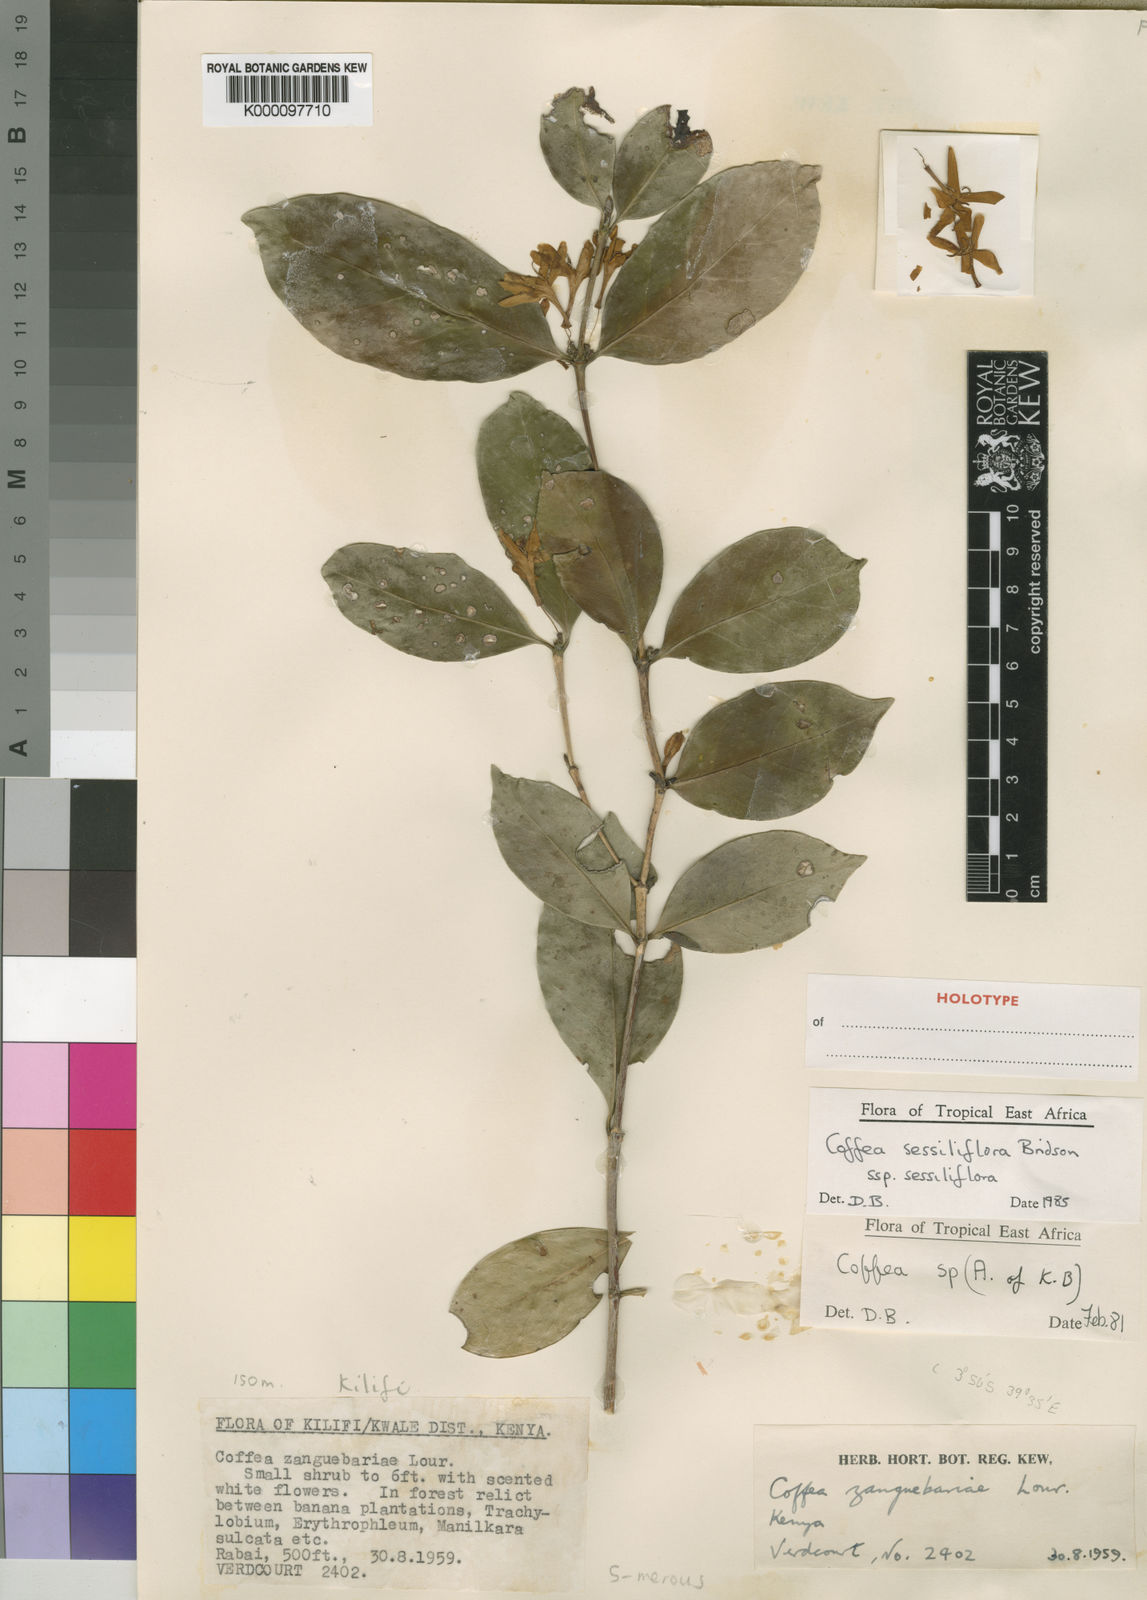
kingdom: Plantae
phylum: Tracheophyta
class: Magnoliopsida
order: Gentianales
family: Rubiaceae
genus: Coffea
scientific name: Coffea sessiliflora
